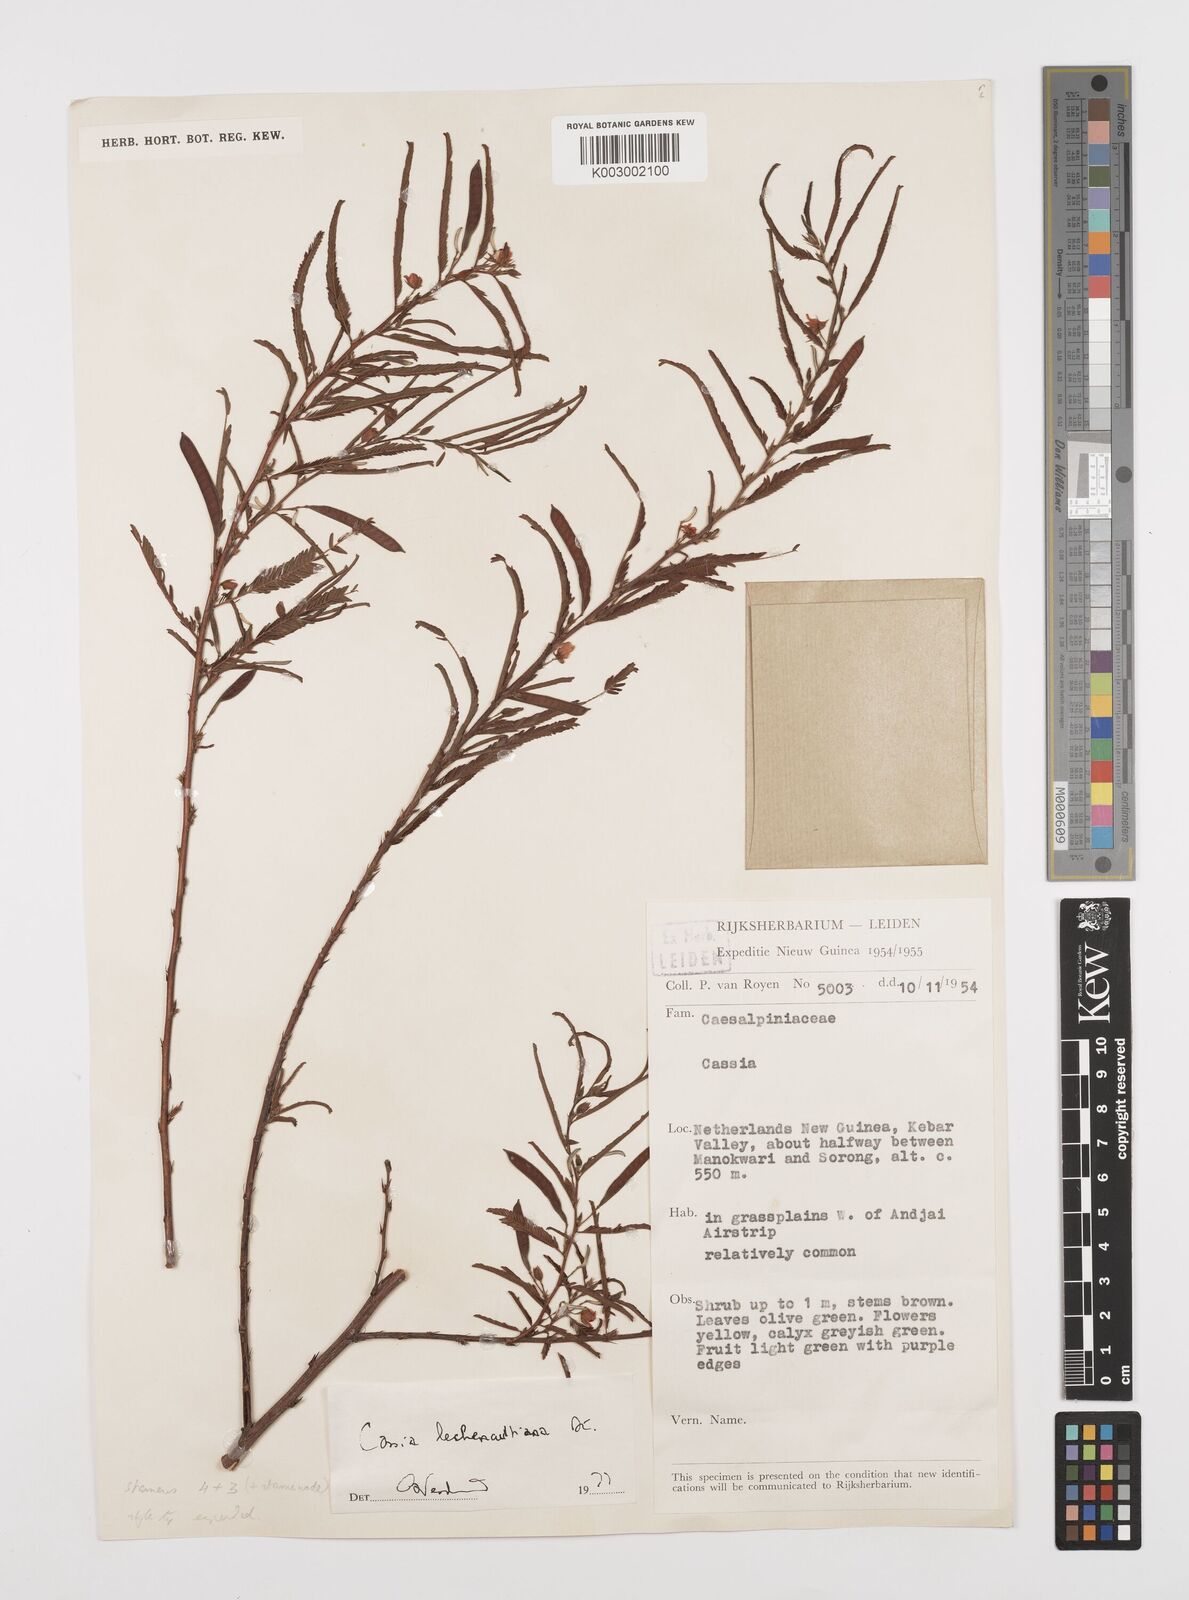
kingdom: Plantae
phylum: Tracheophyta
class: Magnoliopsida
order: Fabales
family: Fabaceae
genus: Chamaecrista
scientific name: Chamaecrista mimosoides
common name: Fish-bone cassia
